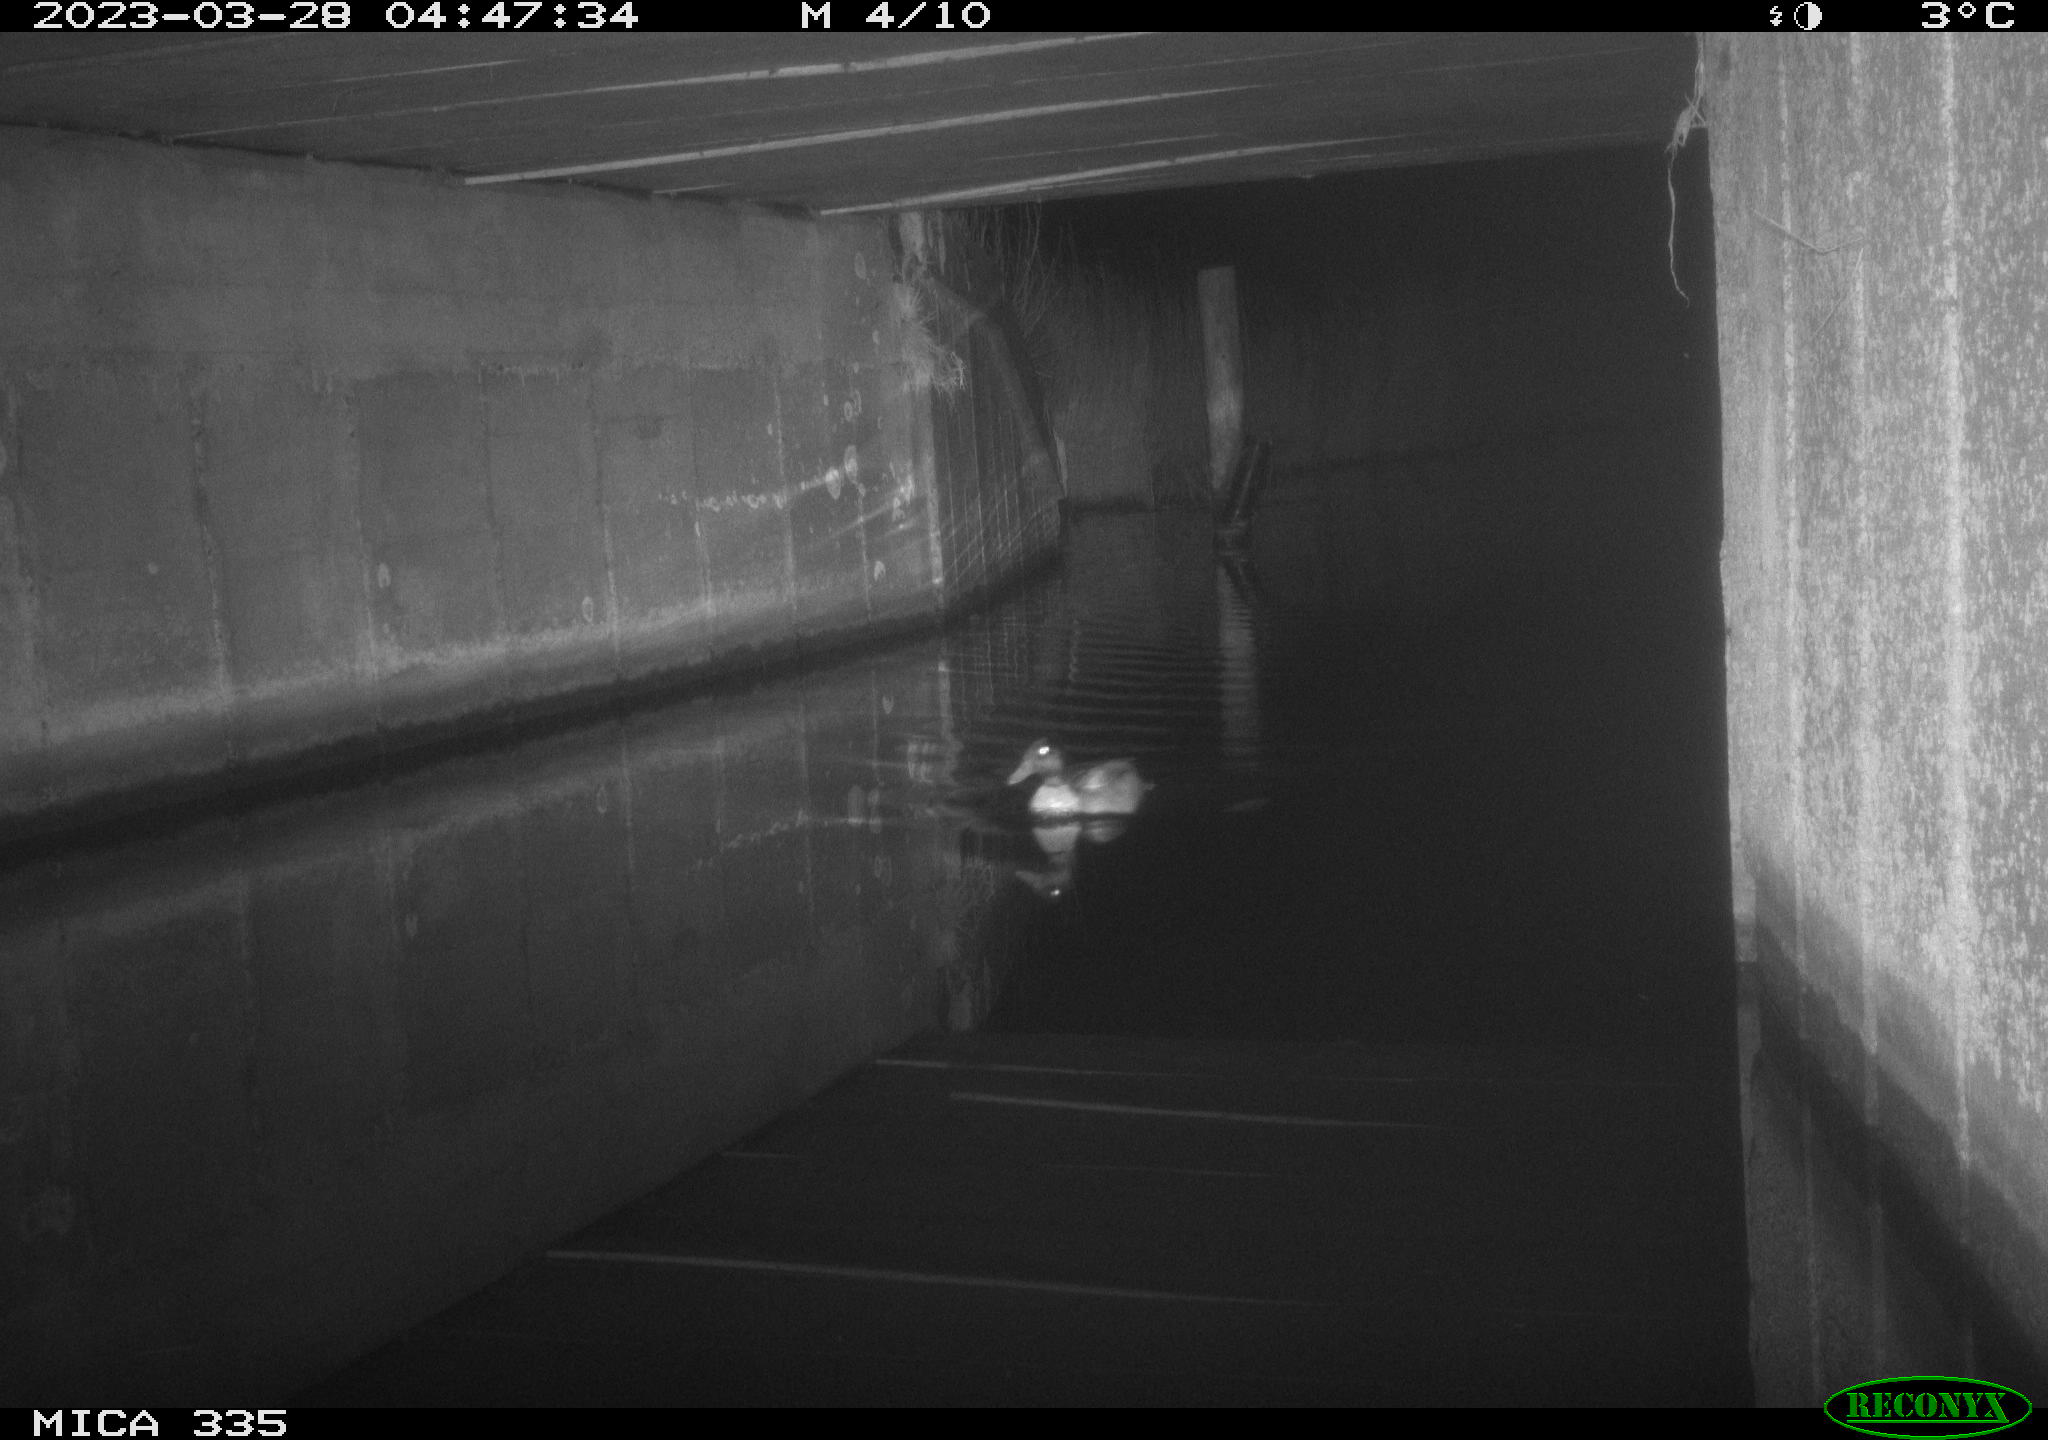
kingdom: Animalia
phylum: Chordata
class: Aves
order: Anseriformes
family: Anatidae
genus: Anas
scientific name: Anas
